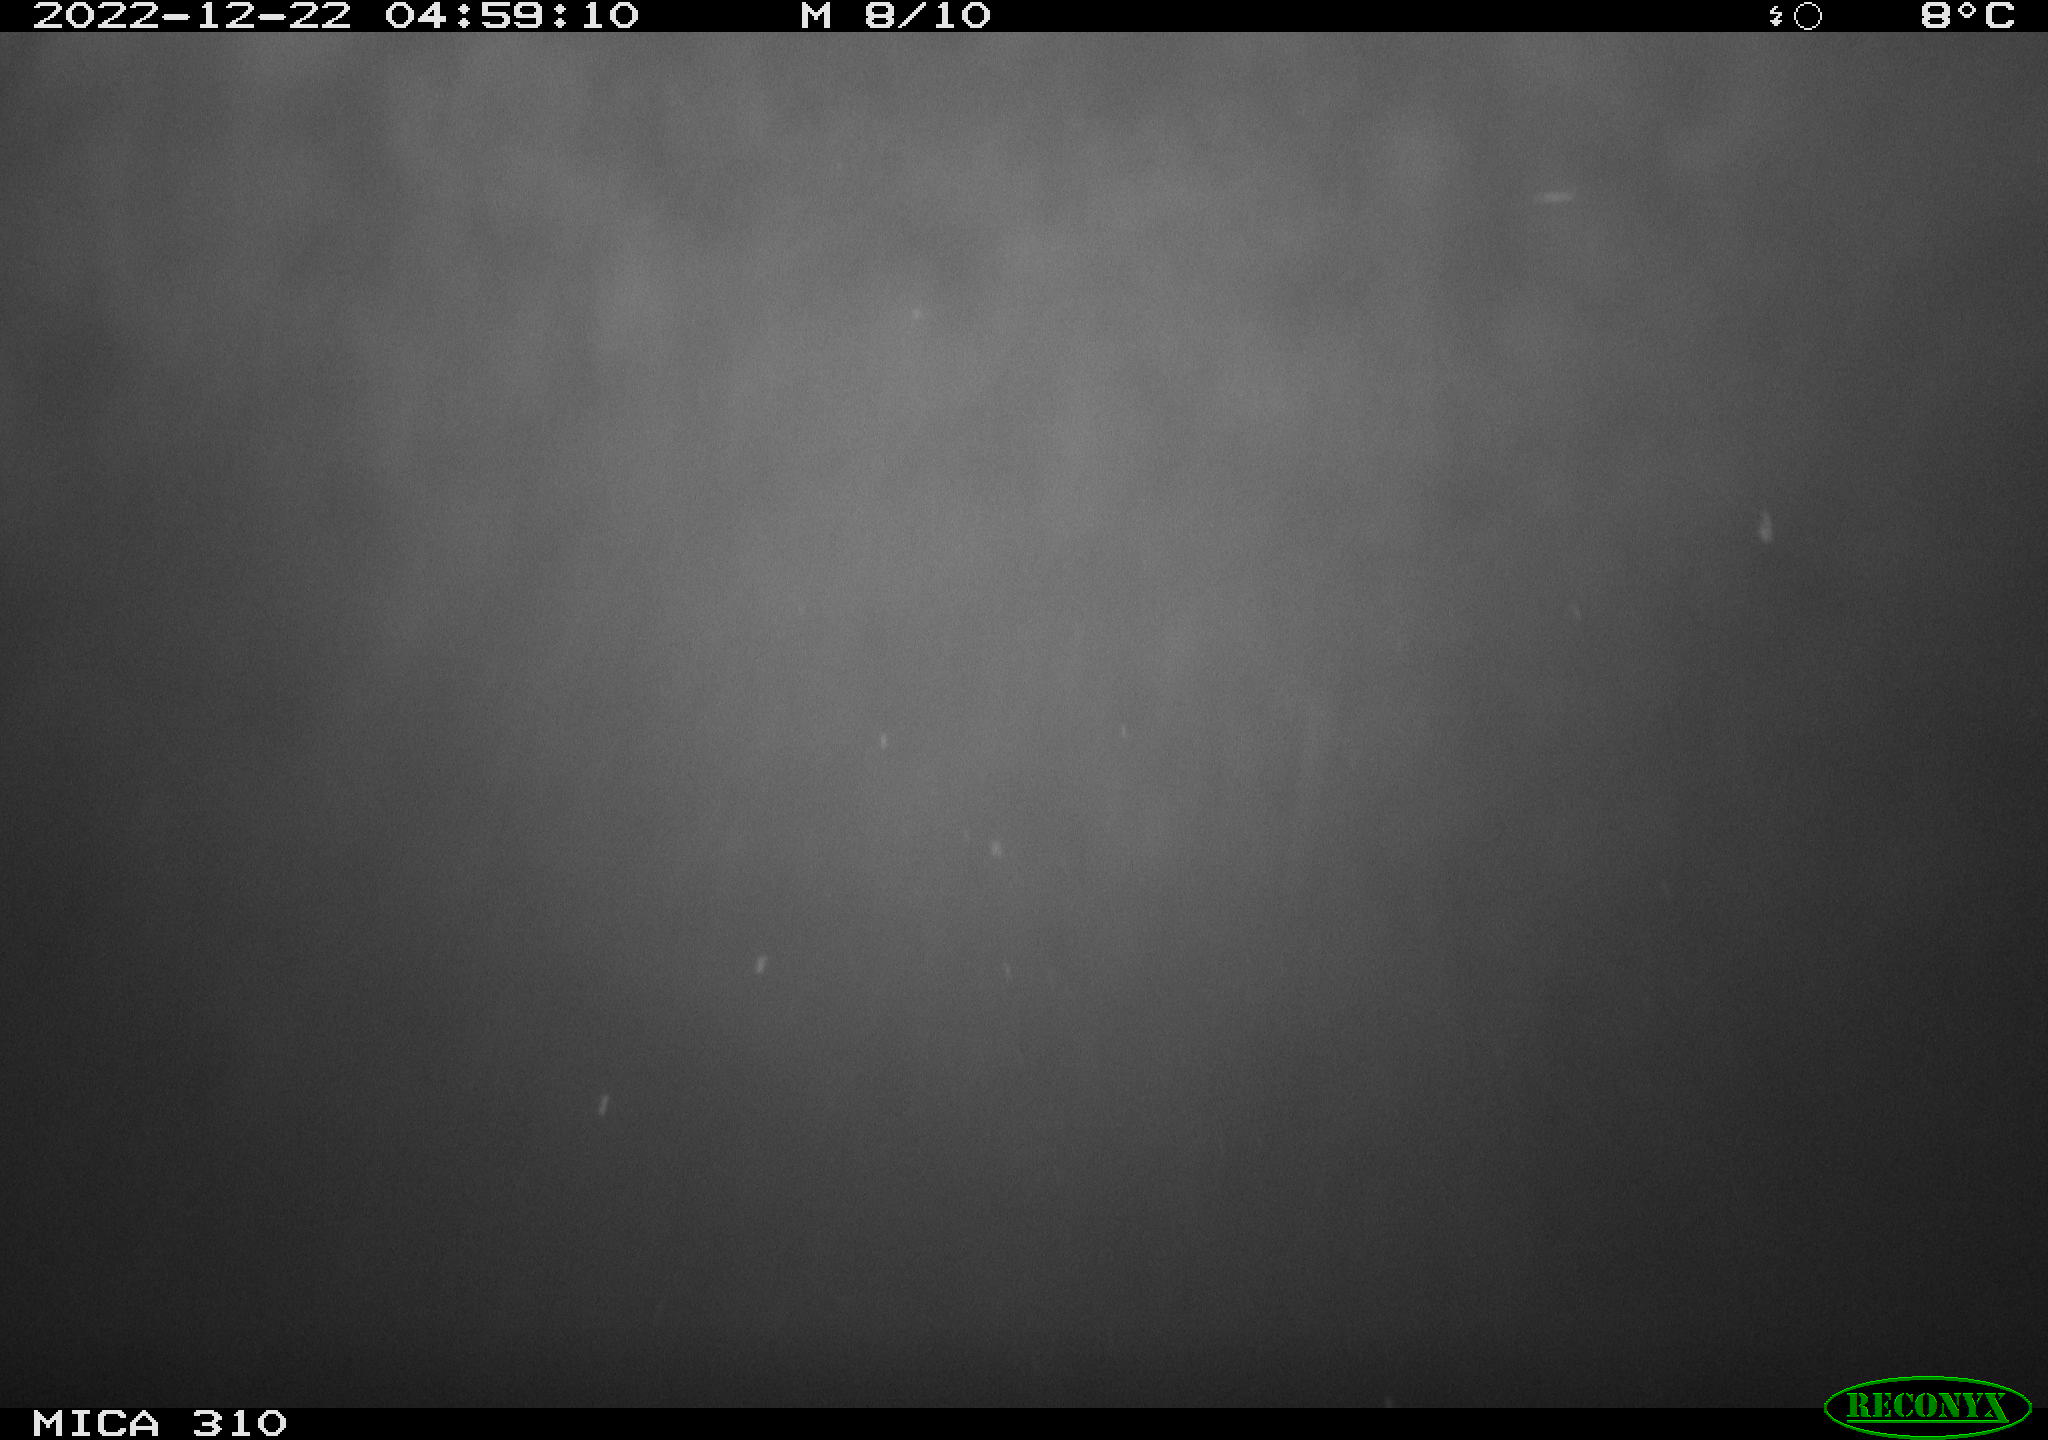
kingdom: Animalia
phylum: Chordata
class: Mammalia
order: Rodentia
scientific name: Rodentia
